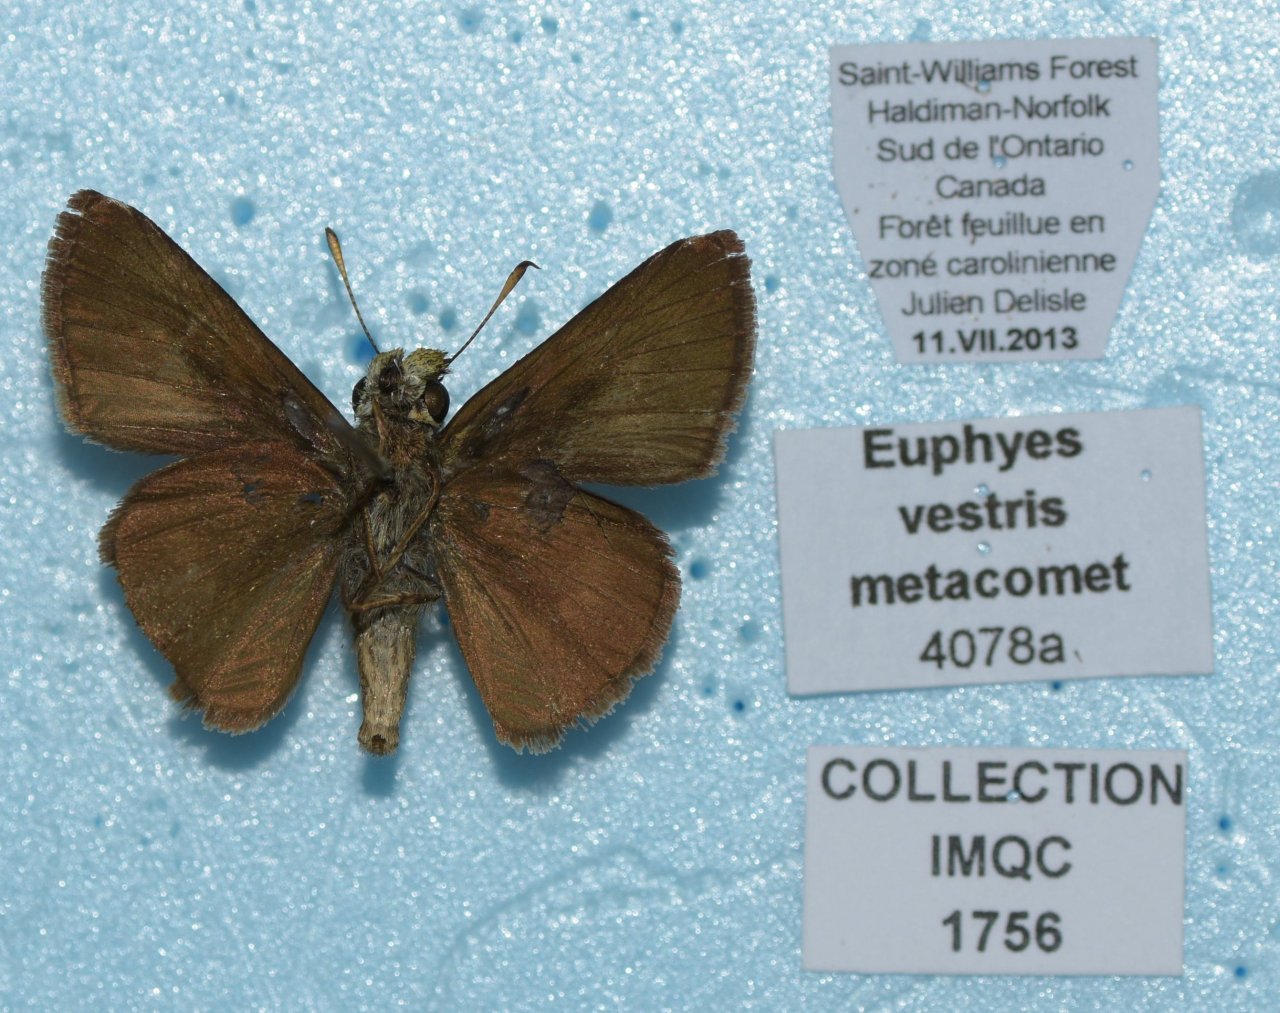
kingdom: Animalia
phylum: Arthropoda
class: Insecta
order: Lepidoptera
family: Hesperiidae
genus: Euphyes
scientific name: Euphyes vestris
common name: Dun Skipper
